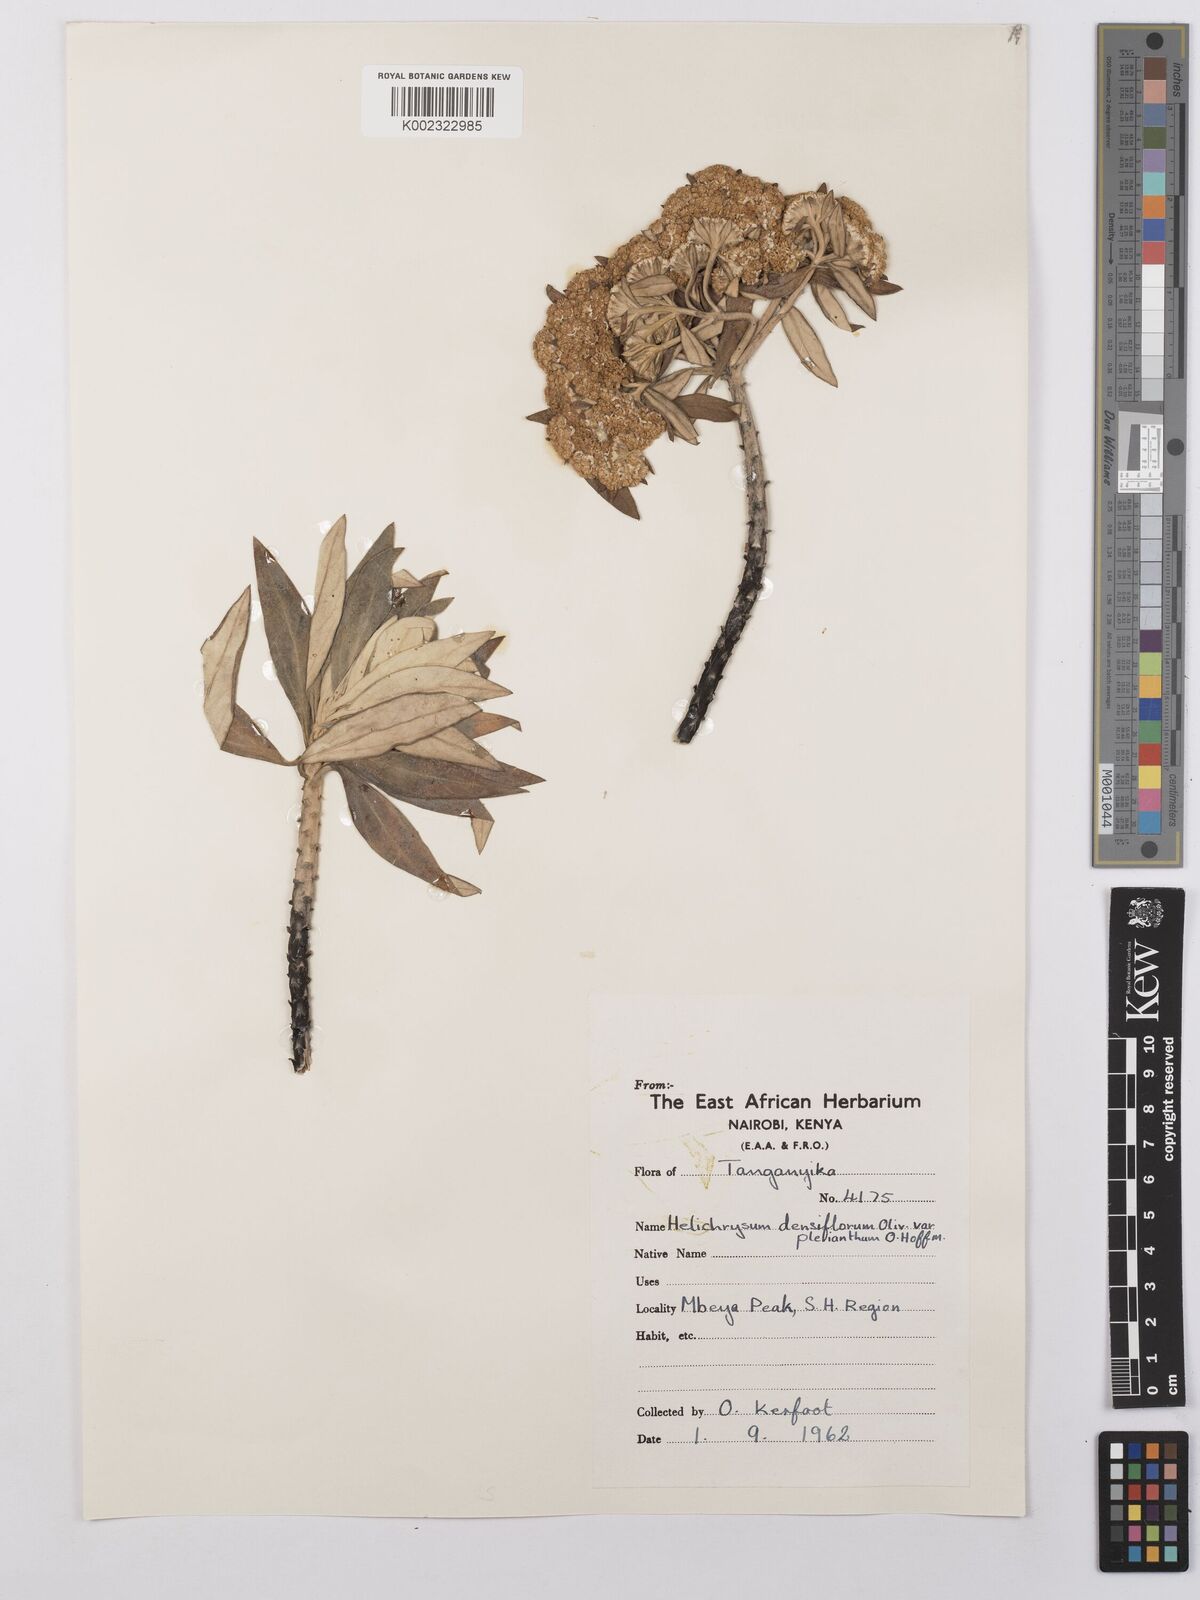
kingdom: Plantae
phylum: Tracheophyta
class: Magnoliopsida
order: Asterales
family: Asteraceae
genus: Helichrysum
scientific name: Helichrysum kraussii
